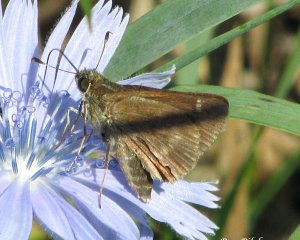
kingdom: Animalia
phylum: Arthropoda
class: Insecta
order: Lepidoptera
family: Hesperiidae
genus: Polites
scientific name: Polites egeremet
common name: Northern Broken-Dash
